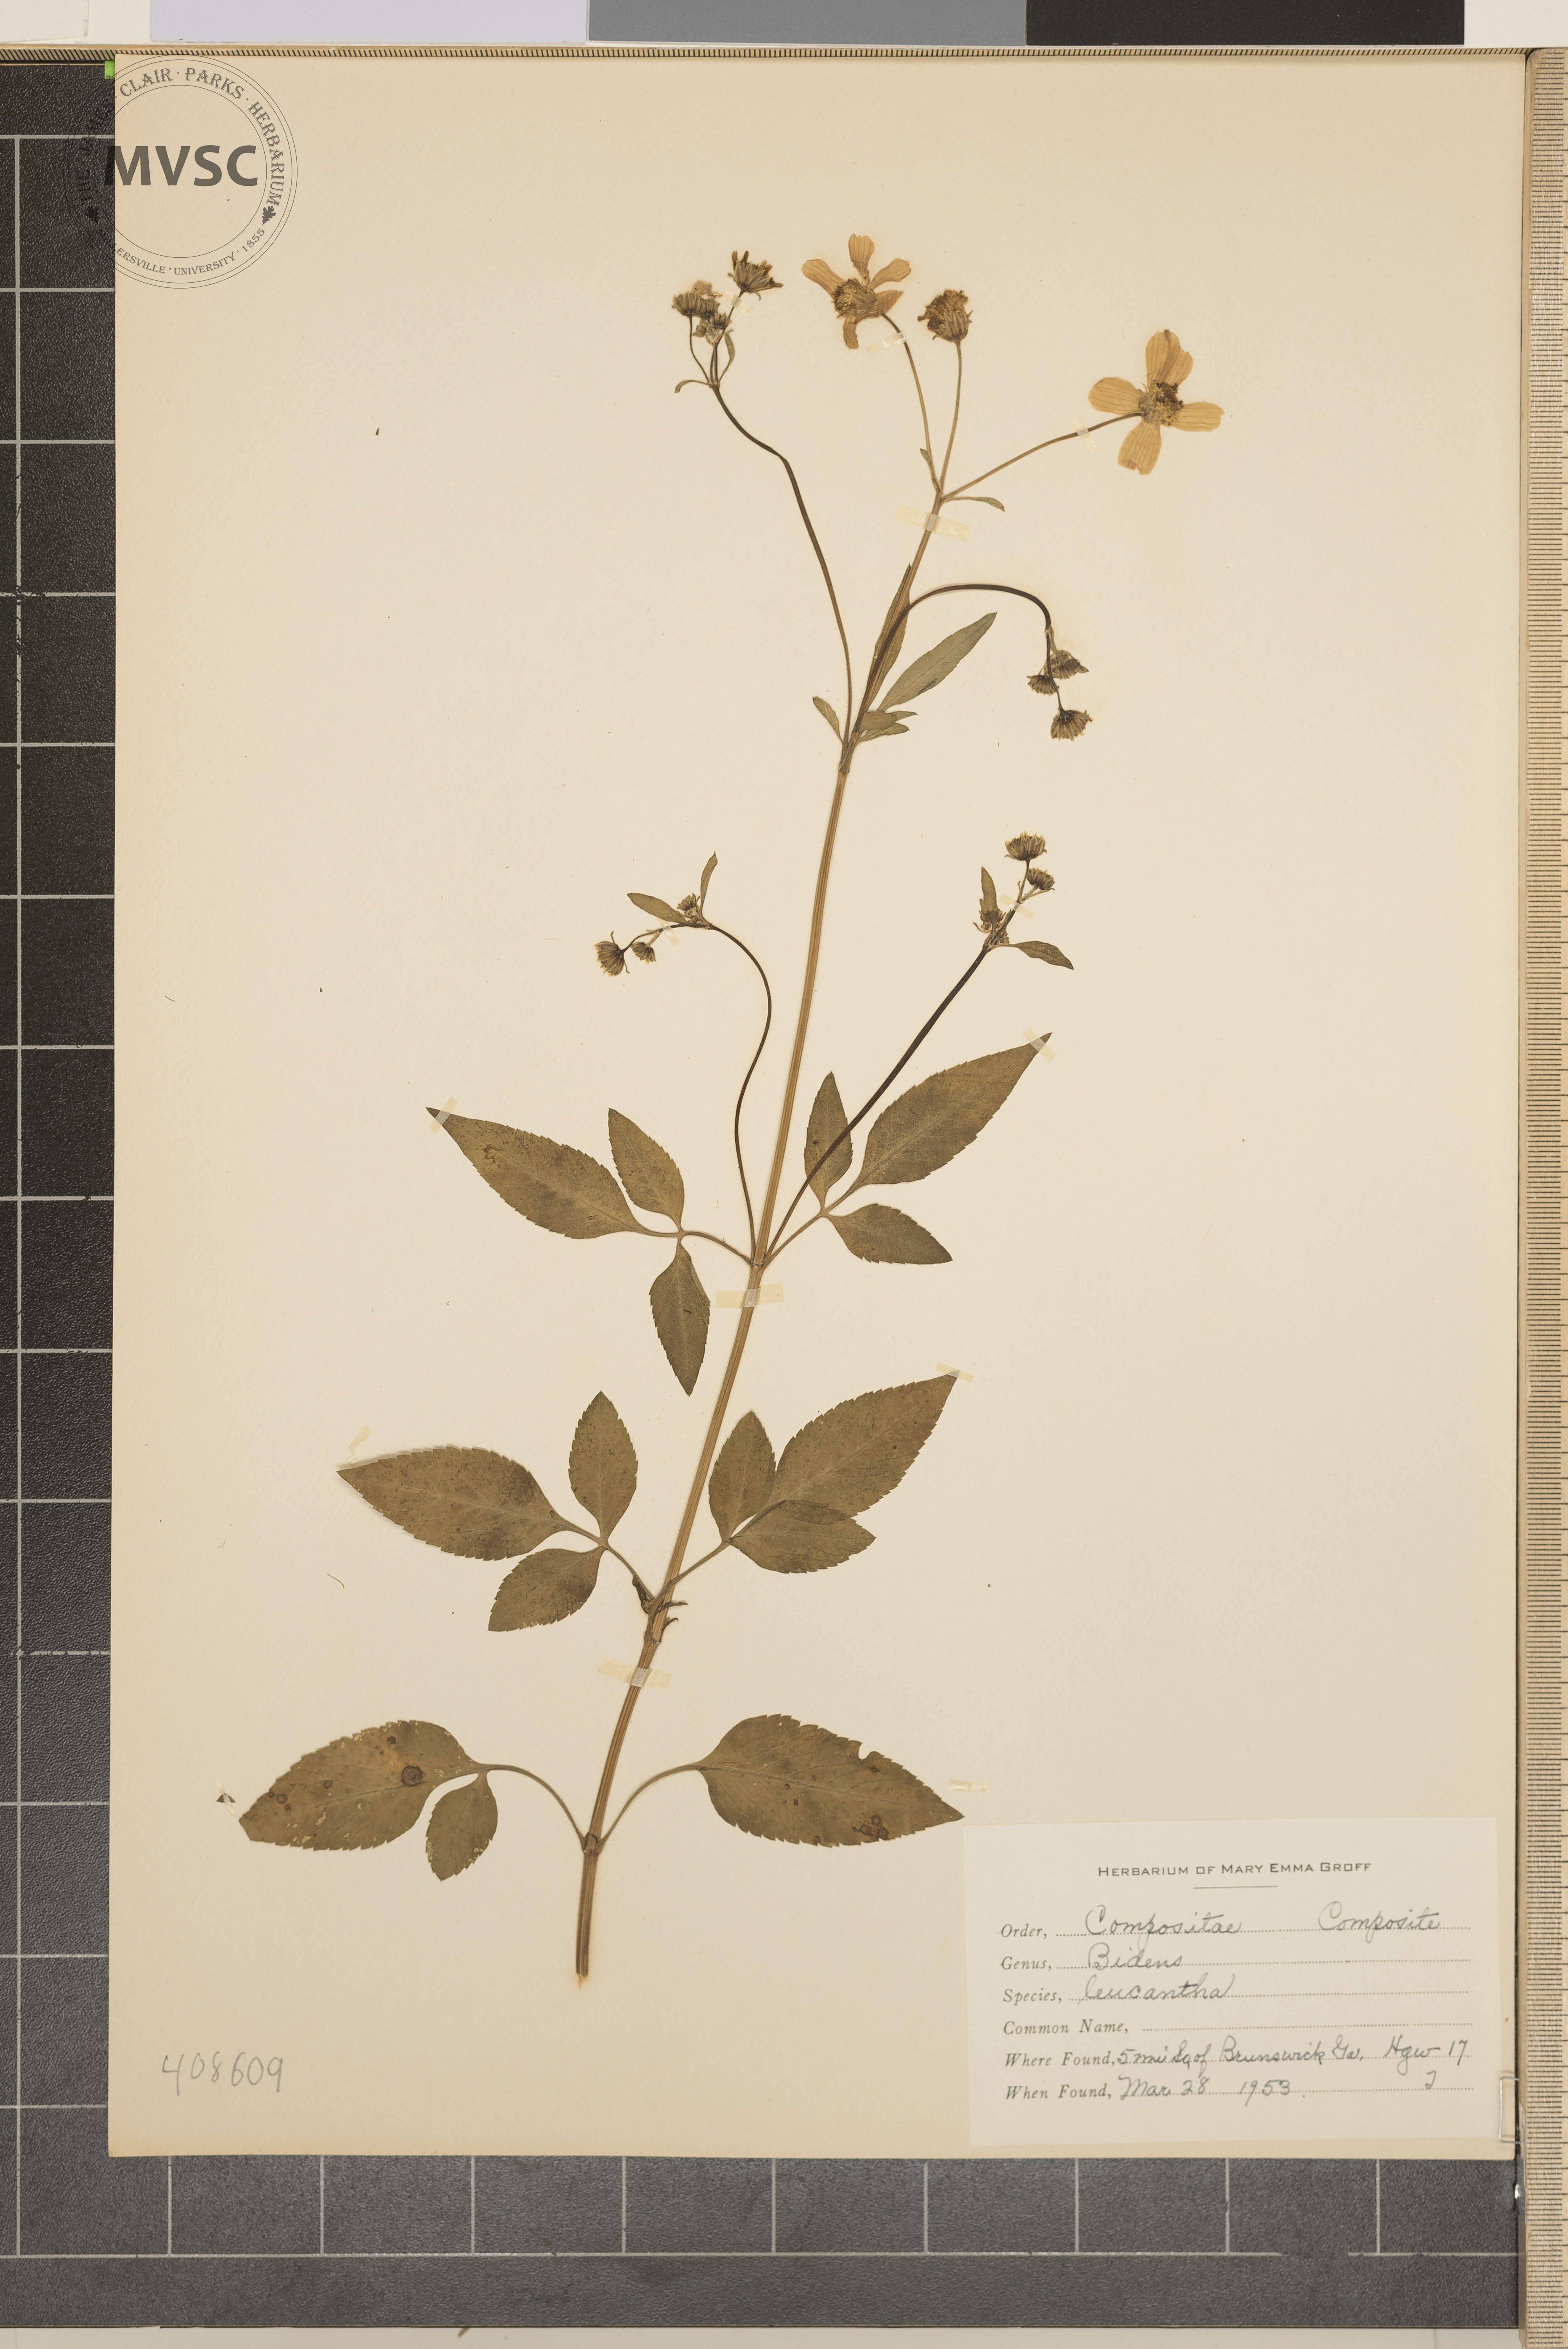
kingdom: Plantae
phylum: Tracheophyta
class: Magnoliopsida
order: Asterales
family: Asteraceae
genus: Bidens
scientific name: Bidens
